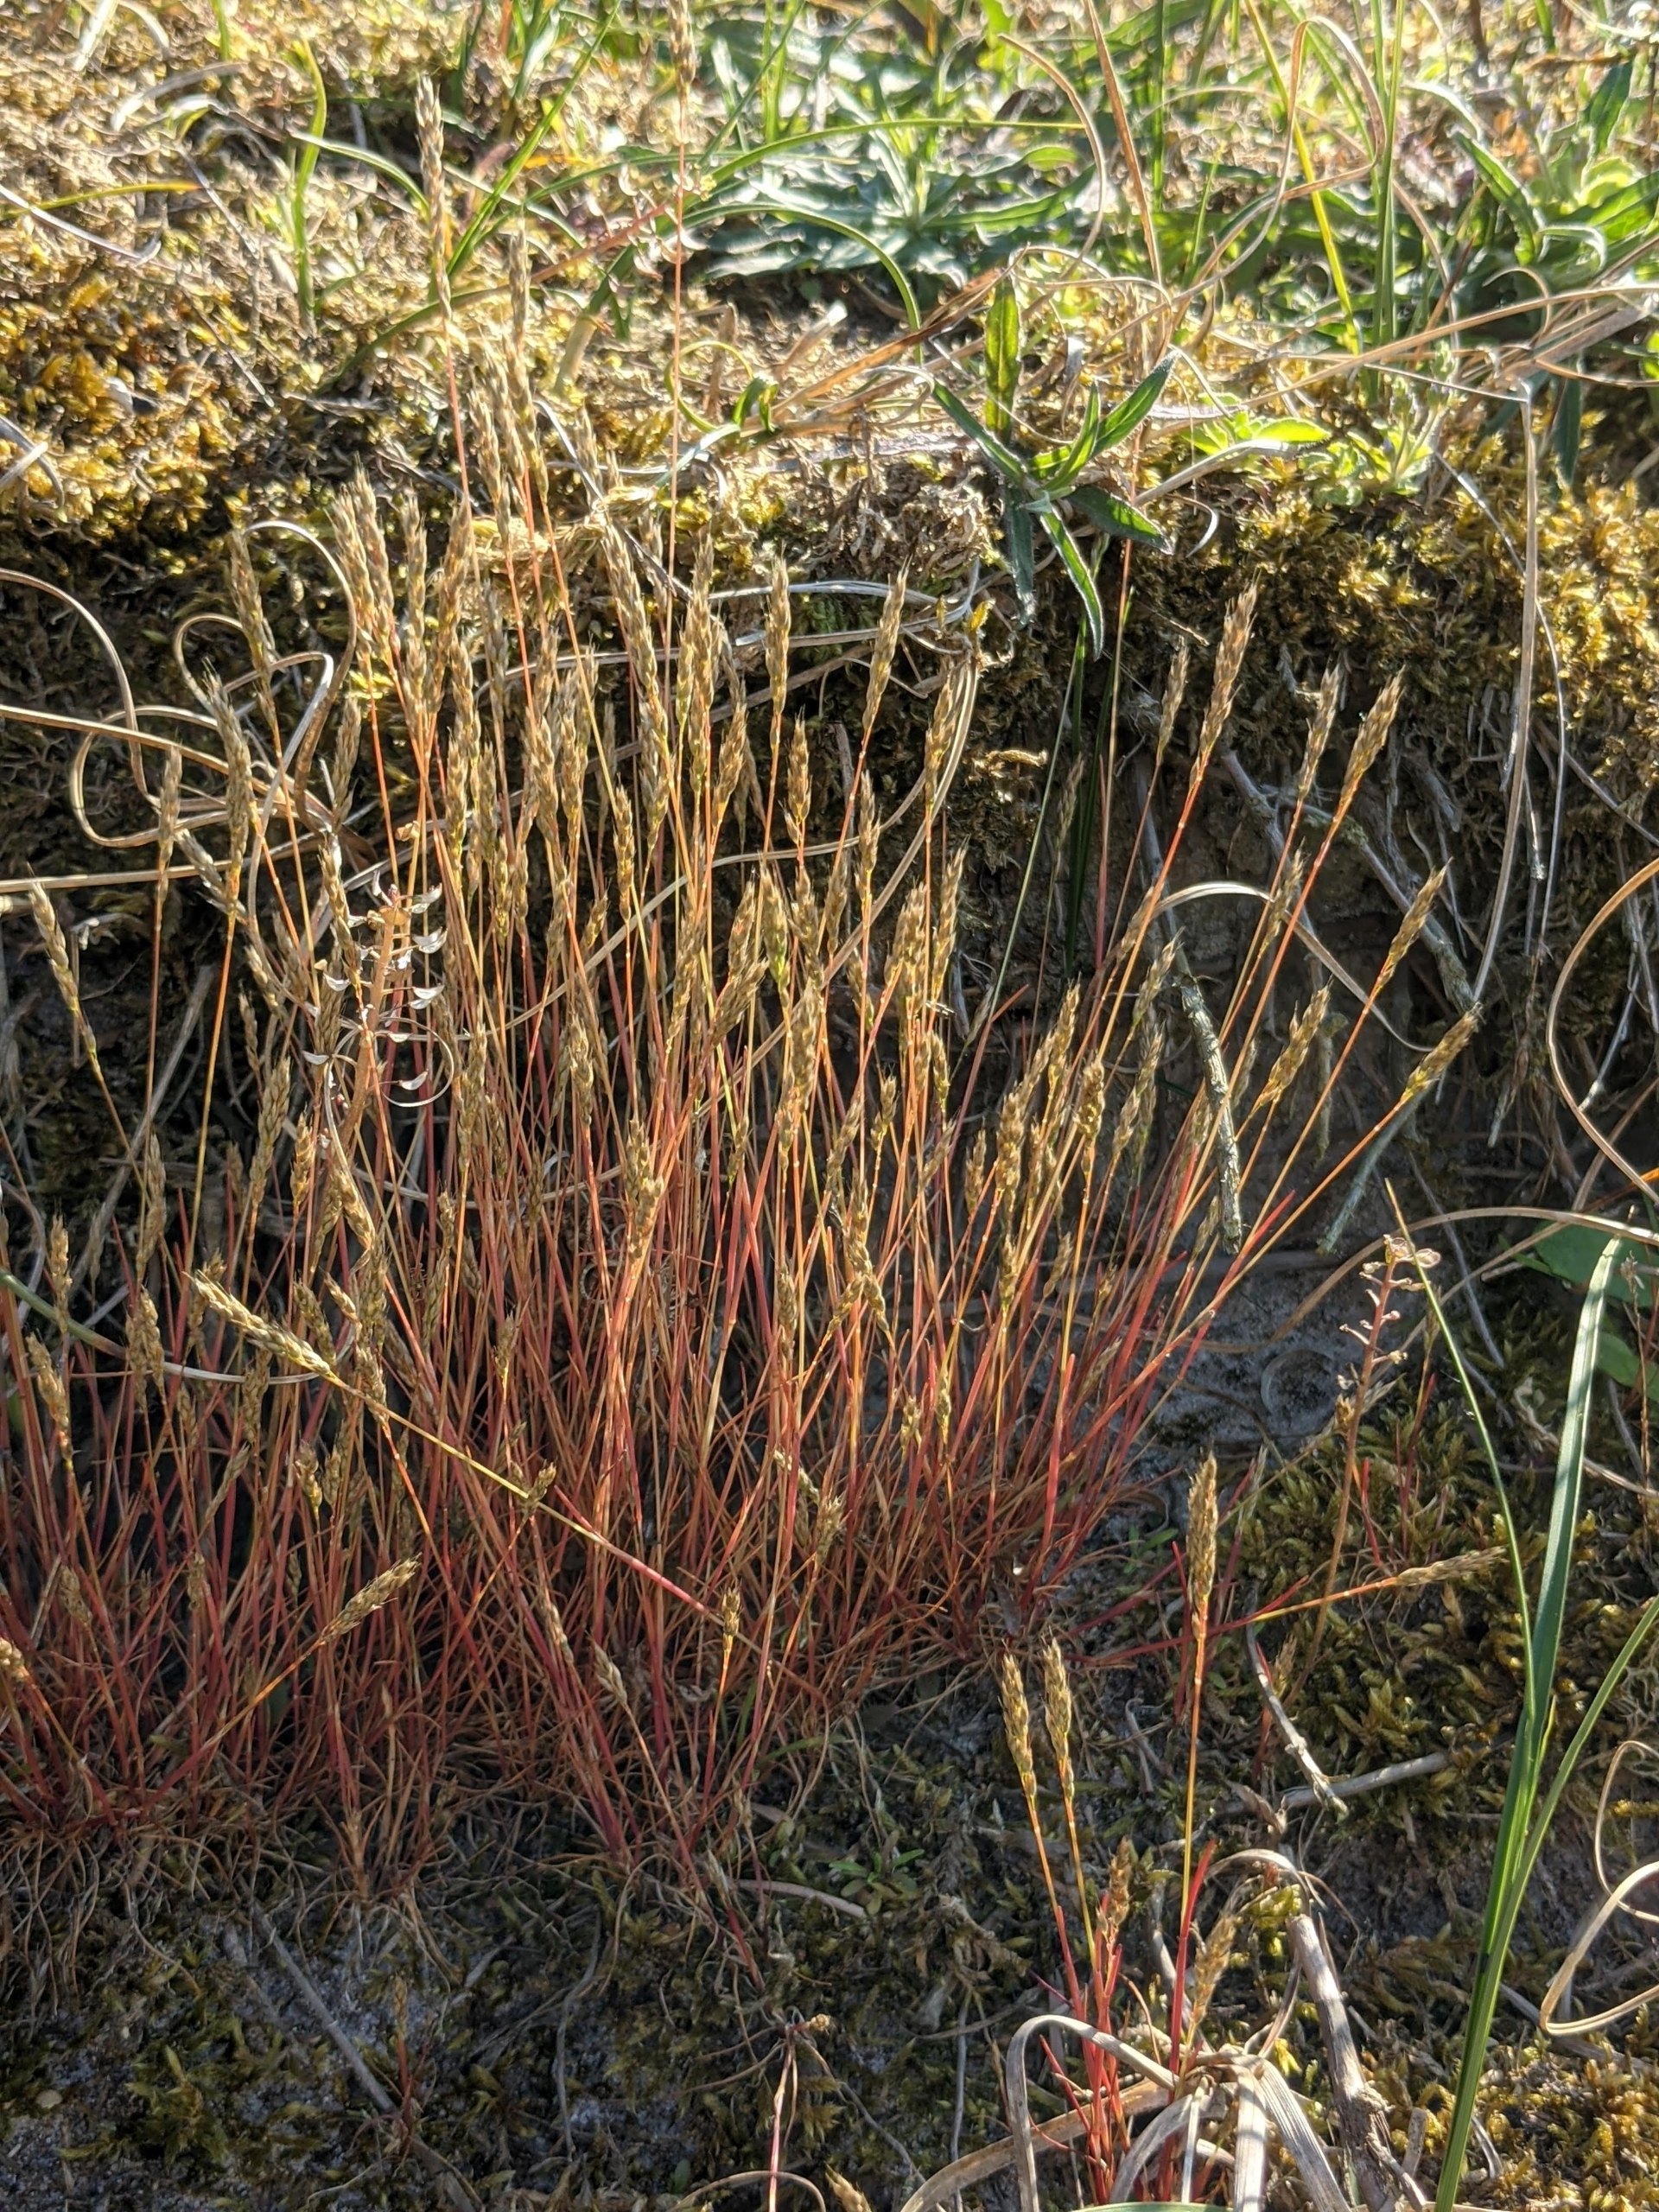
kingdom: Plantae
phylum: Tracheophyta
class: Liliopsida
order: Poales
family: Poaceae
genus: Aira
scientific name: Aira praecox
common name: Tidlig dværgbunke
